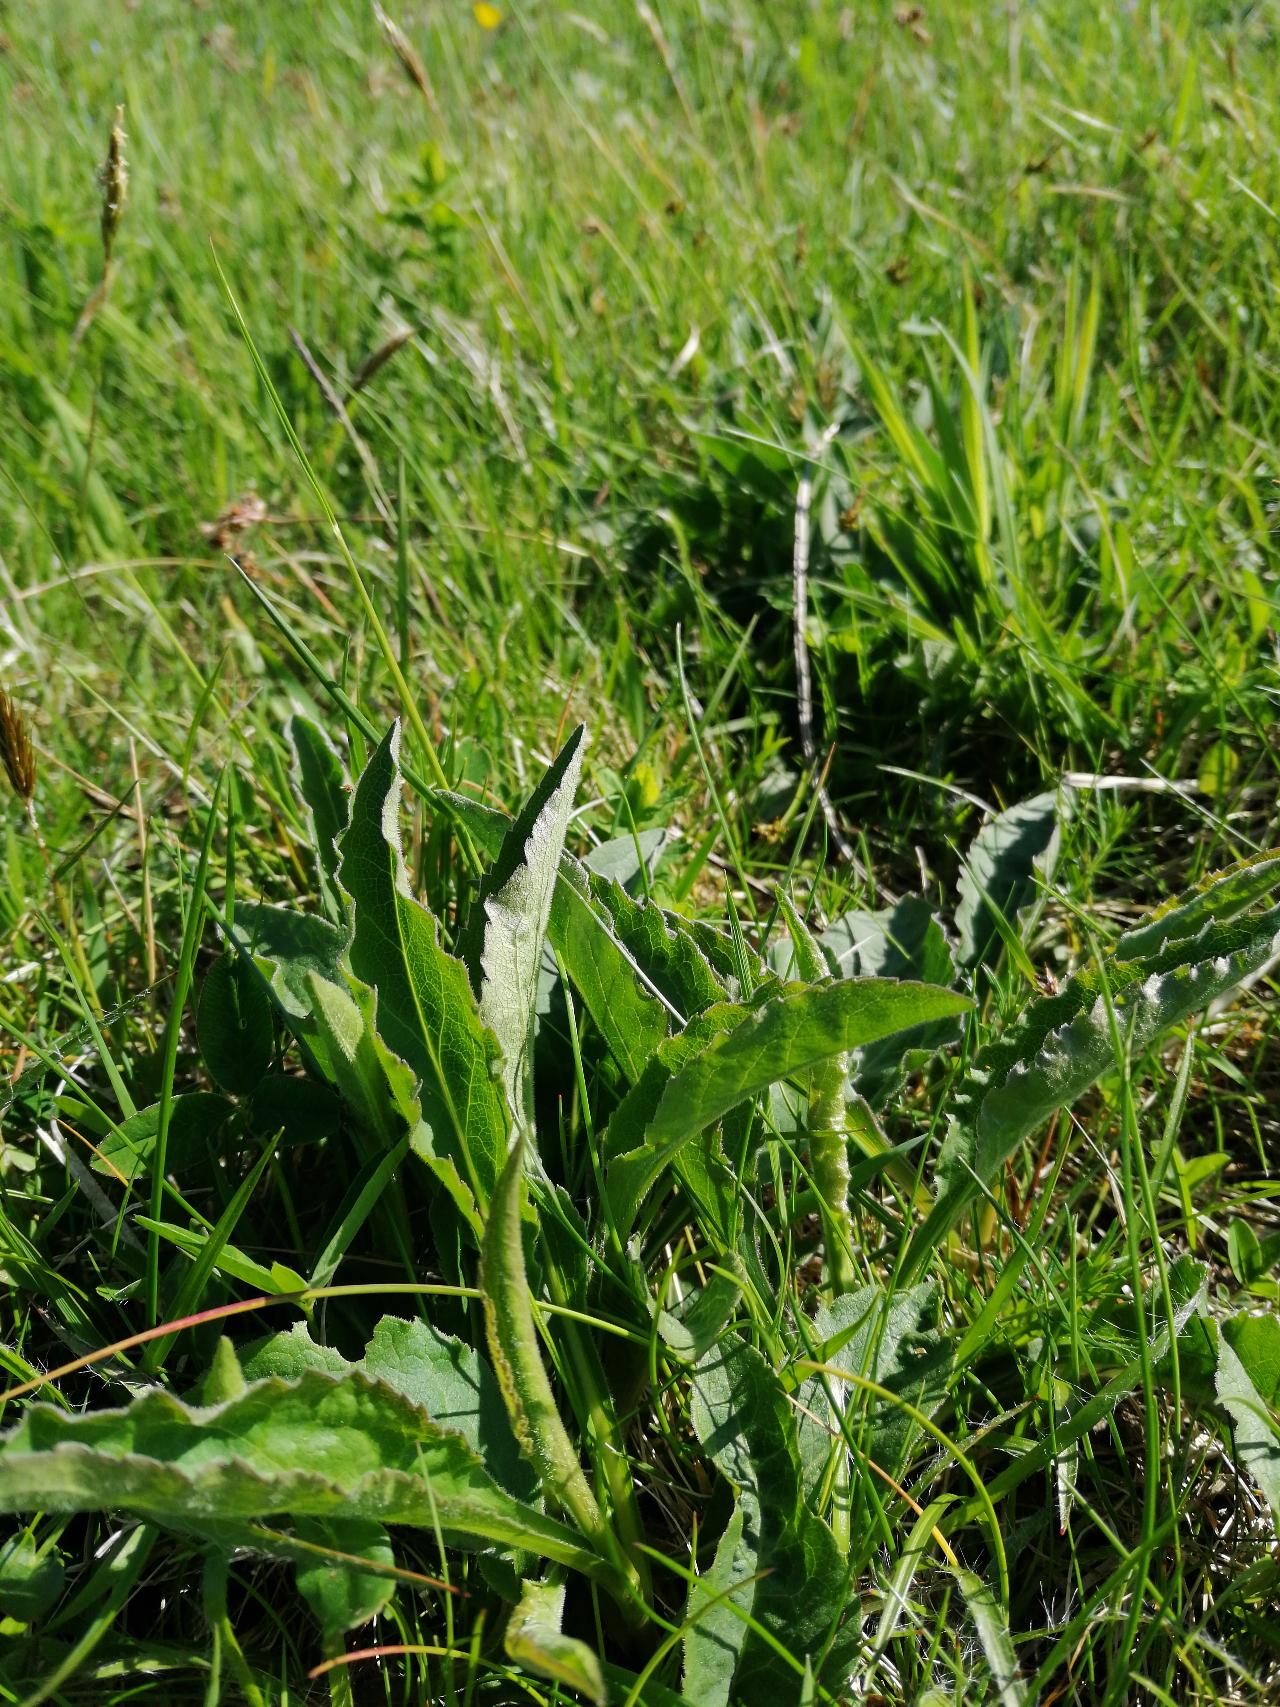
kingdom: Plantae
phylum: Tracheophyta
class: Magnoliopsida
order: Asterales
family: Asteraceae
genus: Solidago
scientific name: Solidago virgaurea
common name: Almindelig gyldenris
